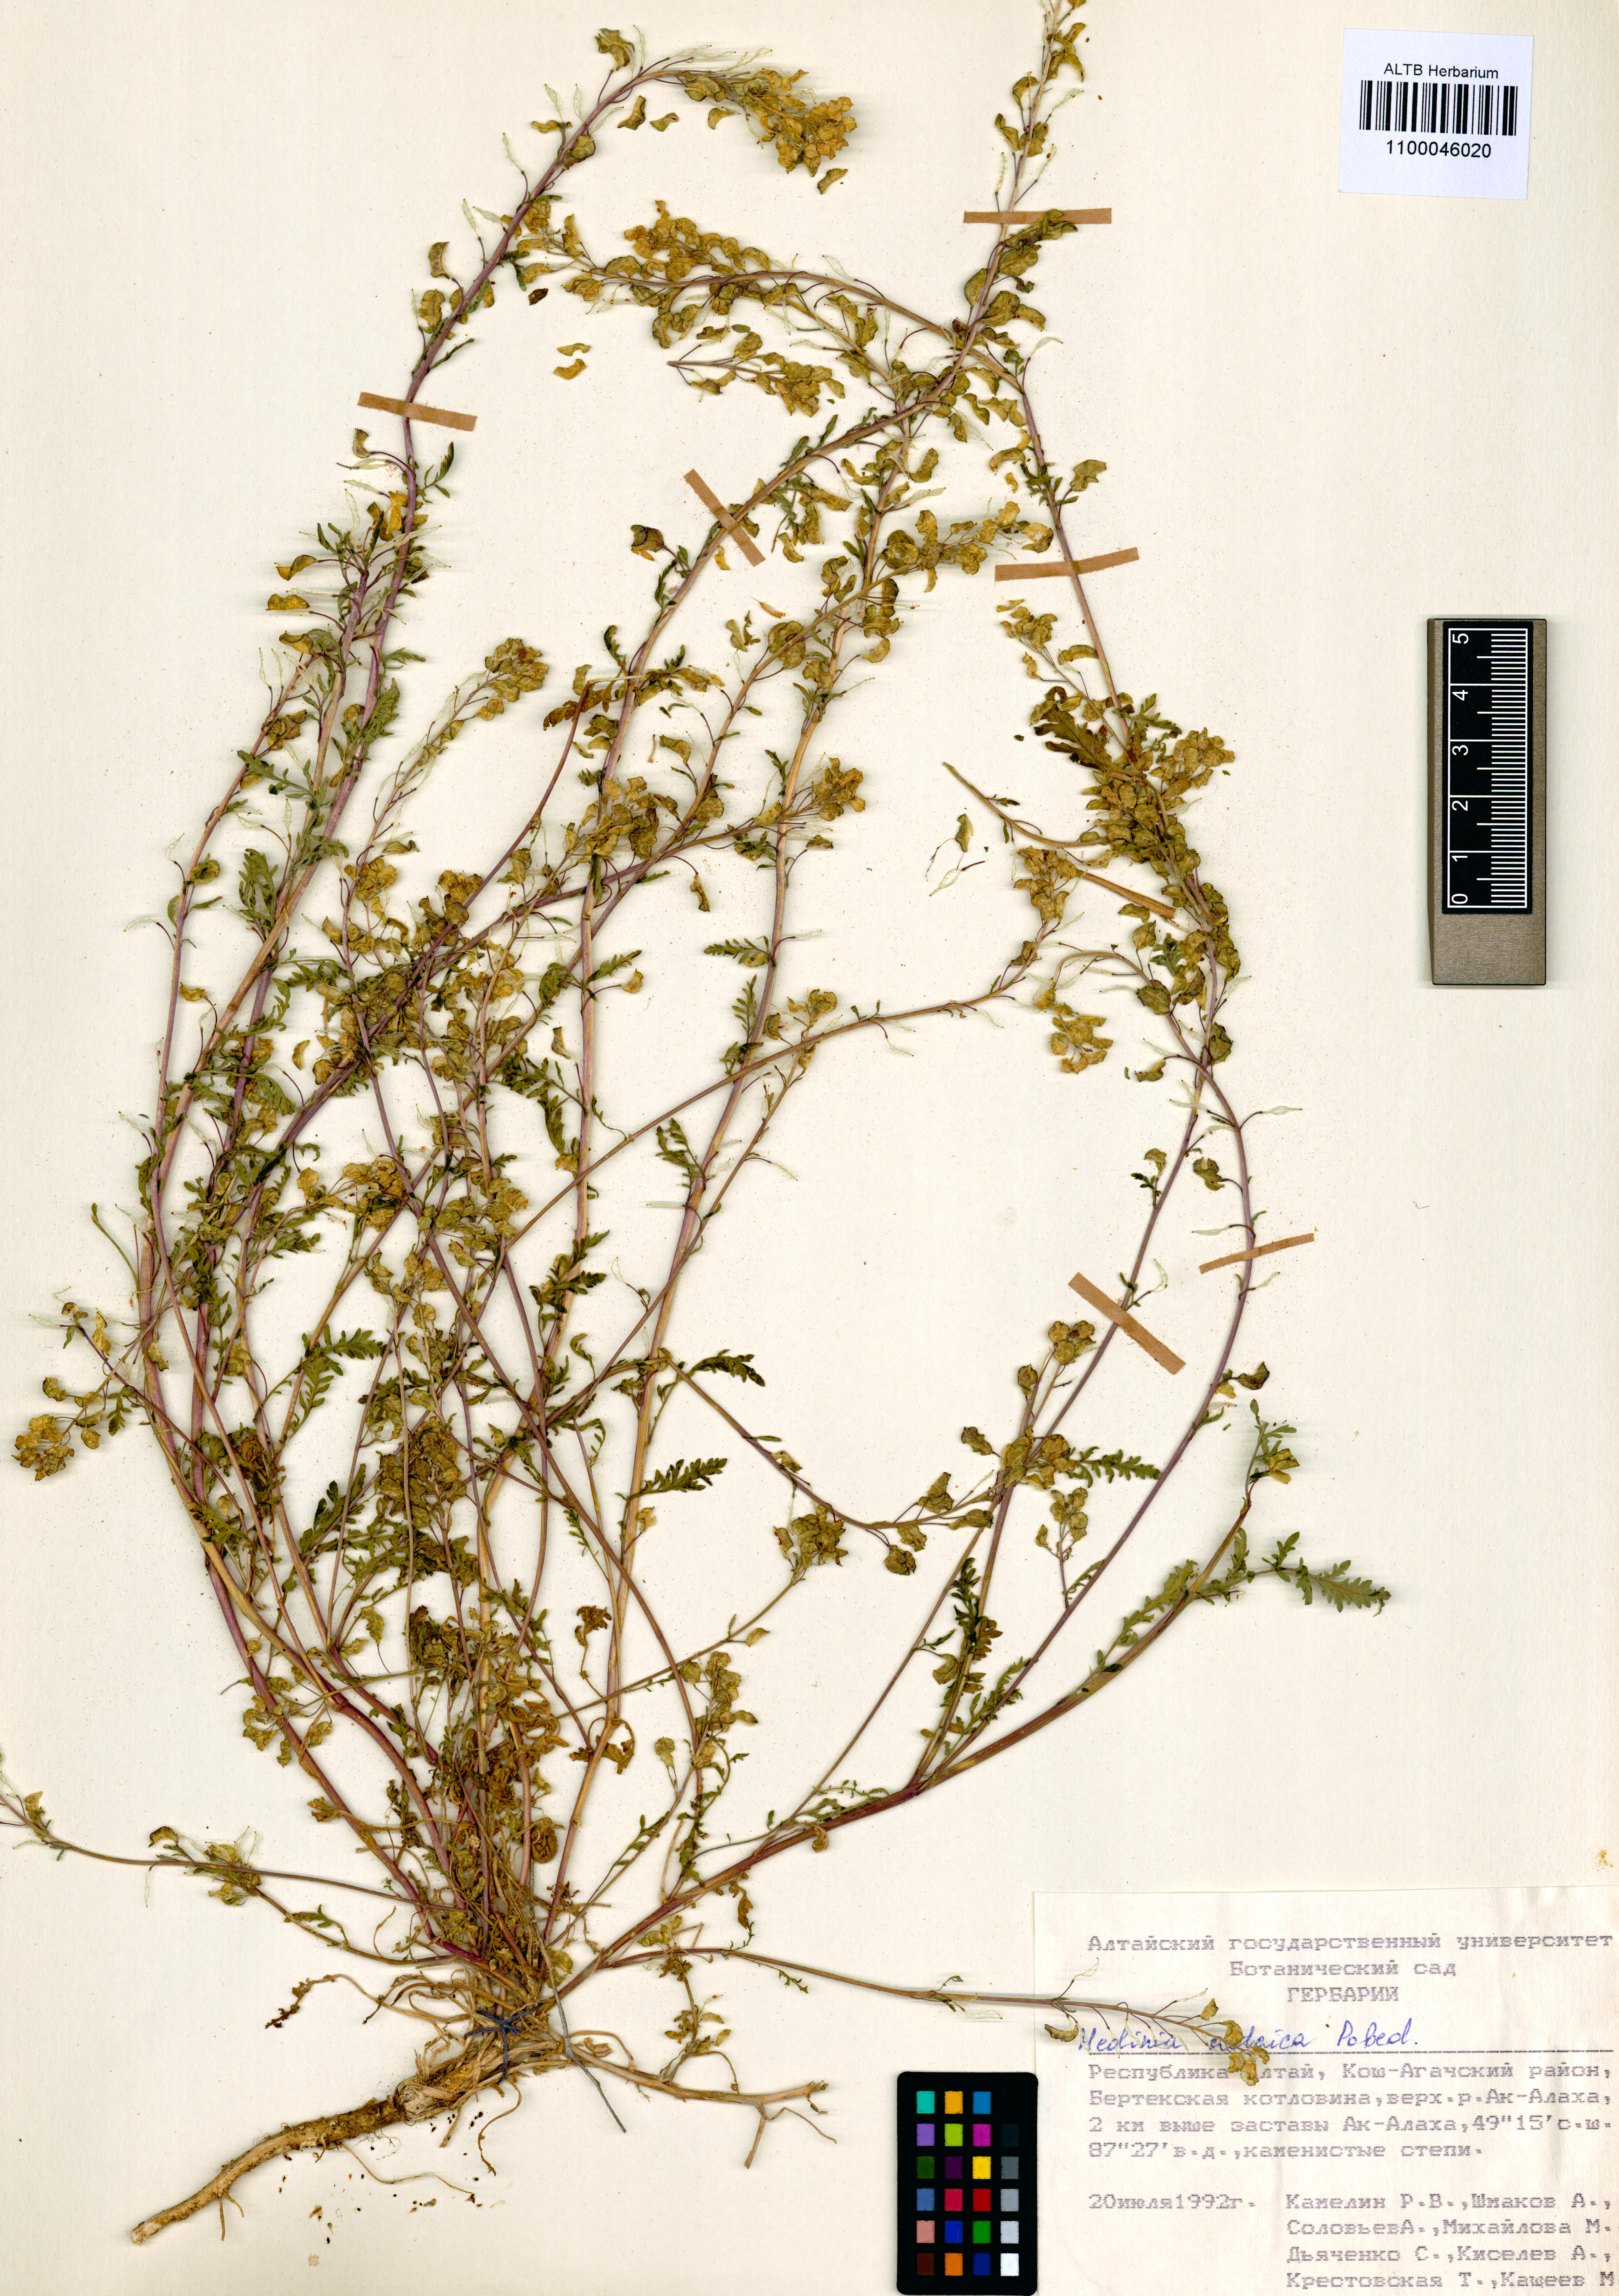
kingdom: Plantae
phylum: Tracheophyta
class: Magnoliopsida
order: Brassicales
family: Brassicaceae
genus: Smelowskia
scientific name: Smelowskia altaica
